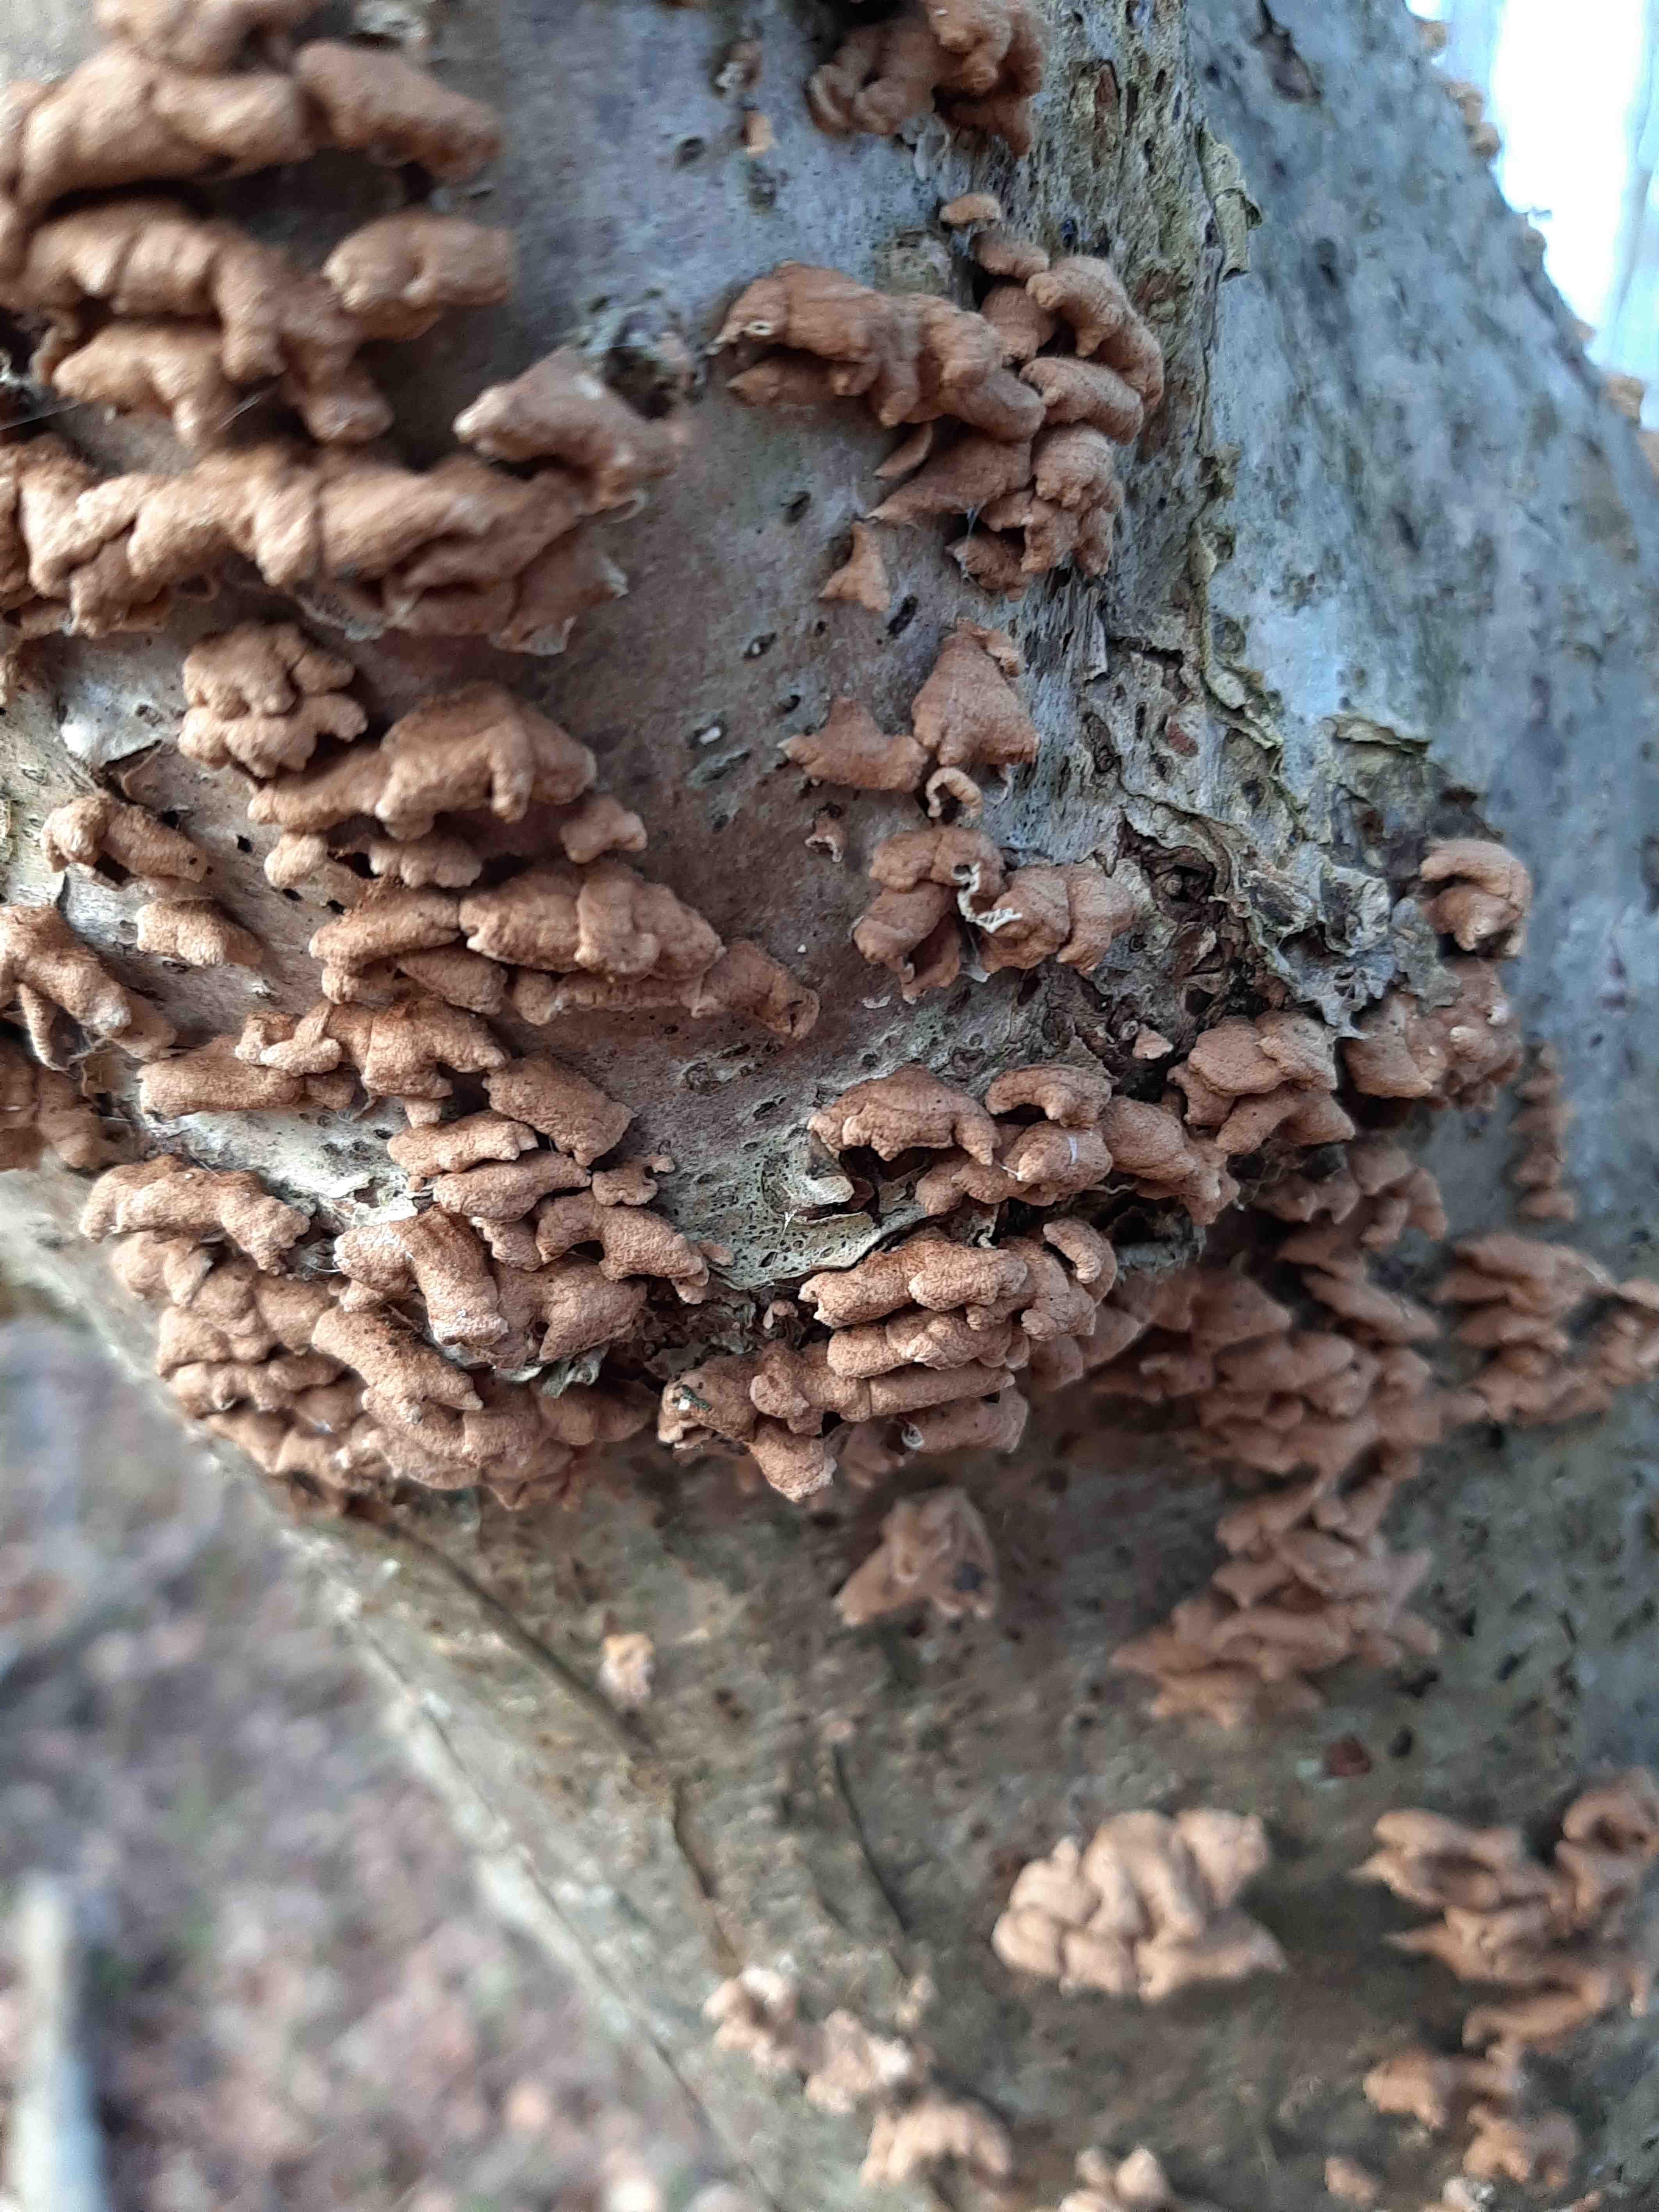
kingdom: Fungi
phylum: Basidiomycota
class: Agaricomycetes
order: Amylocorticiales
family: Amylocorticiaceae
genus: Plicaturopsis
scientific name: Plicaturopsis crispa
